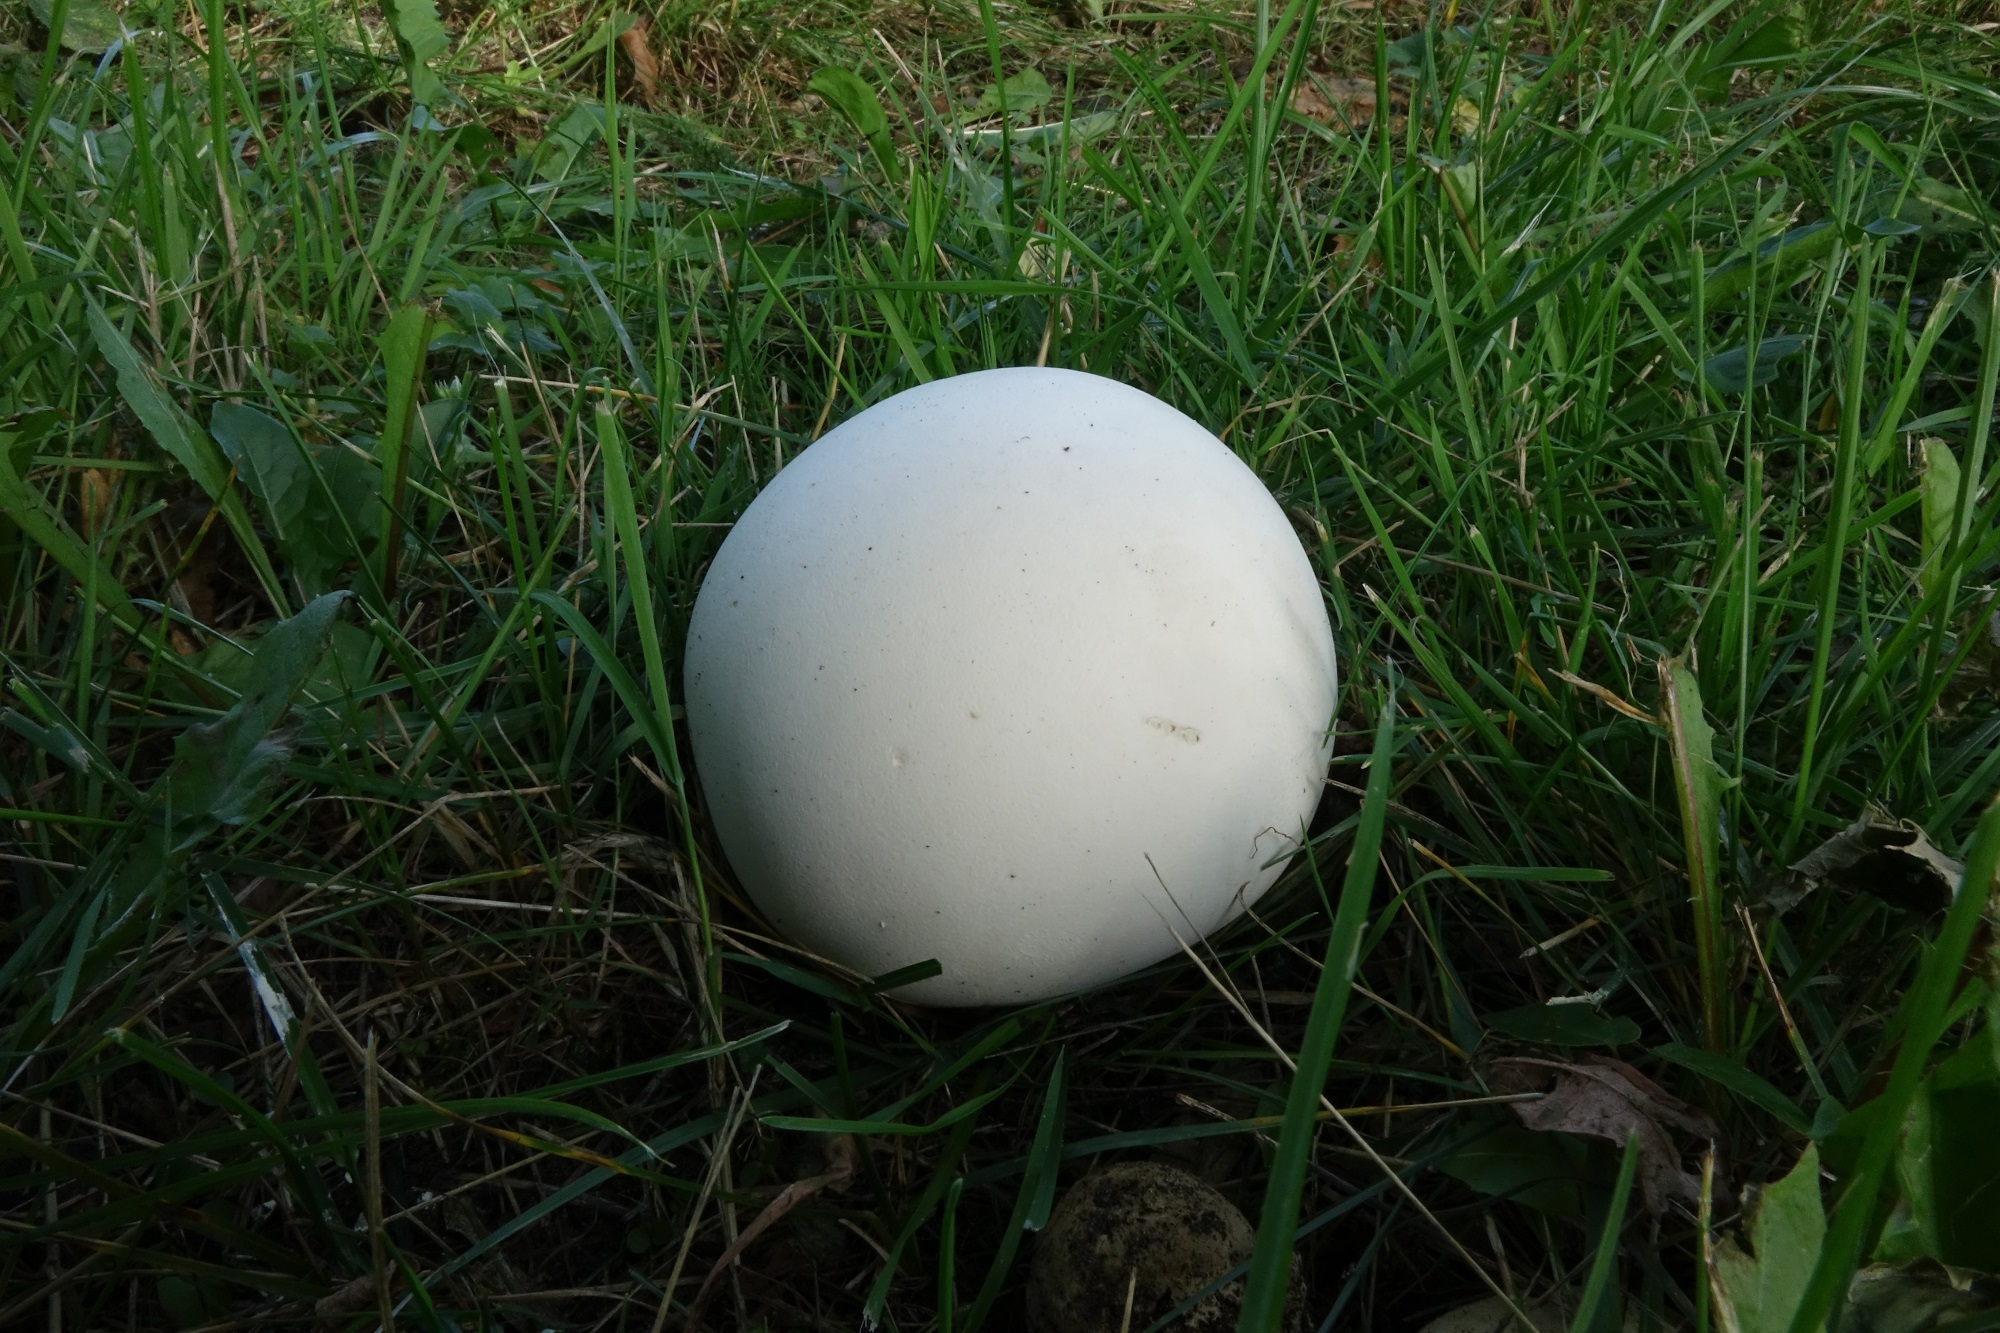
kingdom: Fungi
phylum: Basidiomycota
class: Agaricomycetes
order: Agaricales
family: Lycoperdaceae
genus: Calvatia
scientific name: Calvatia gigantea
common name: Giant puffball
